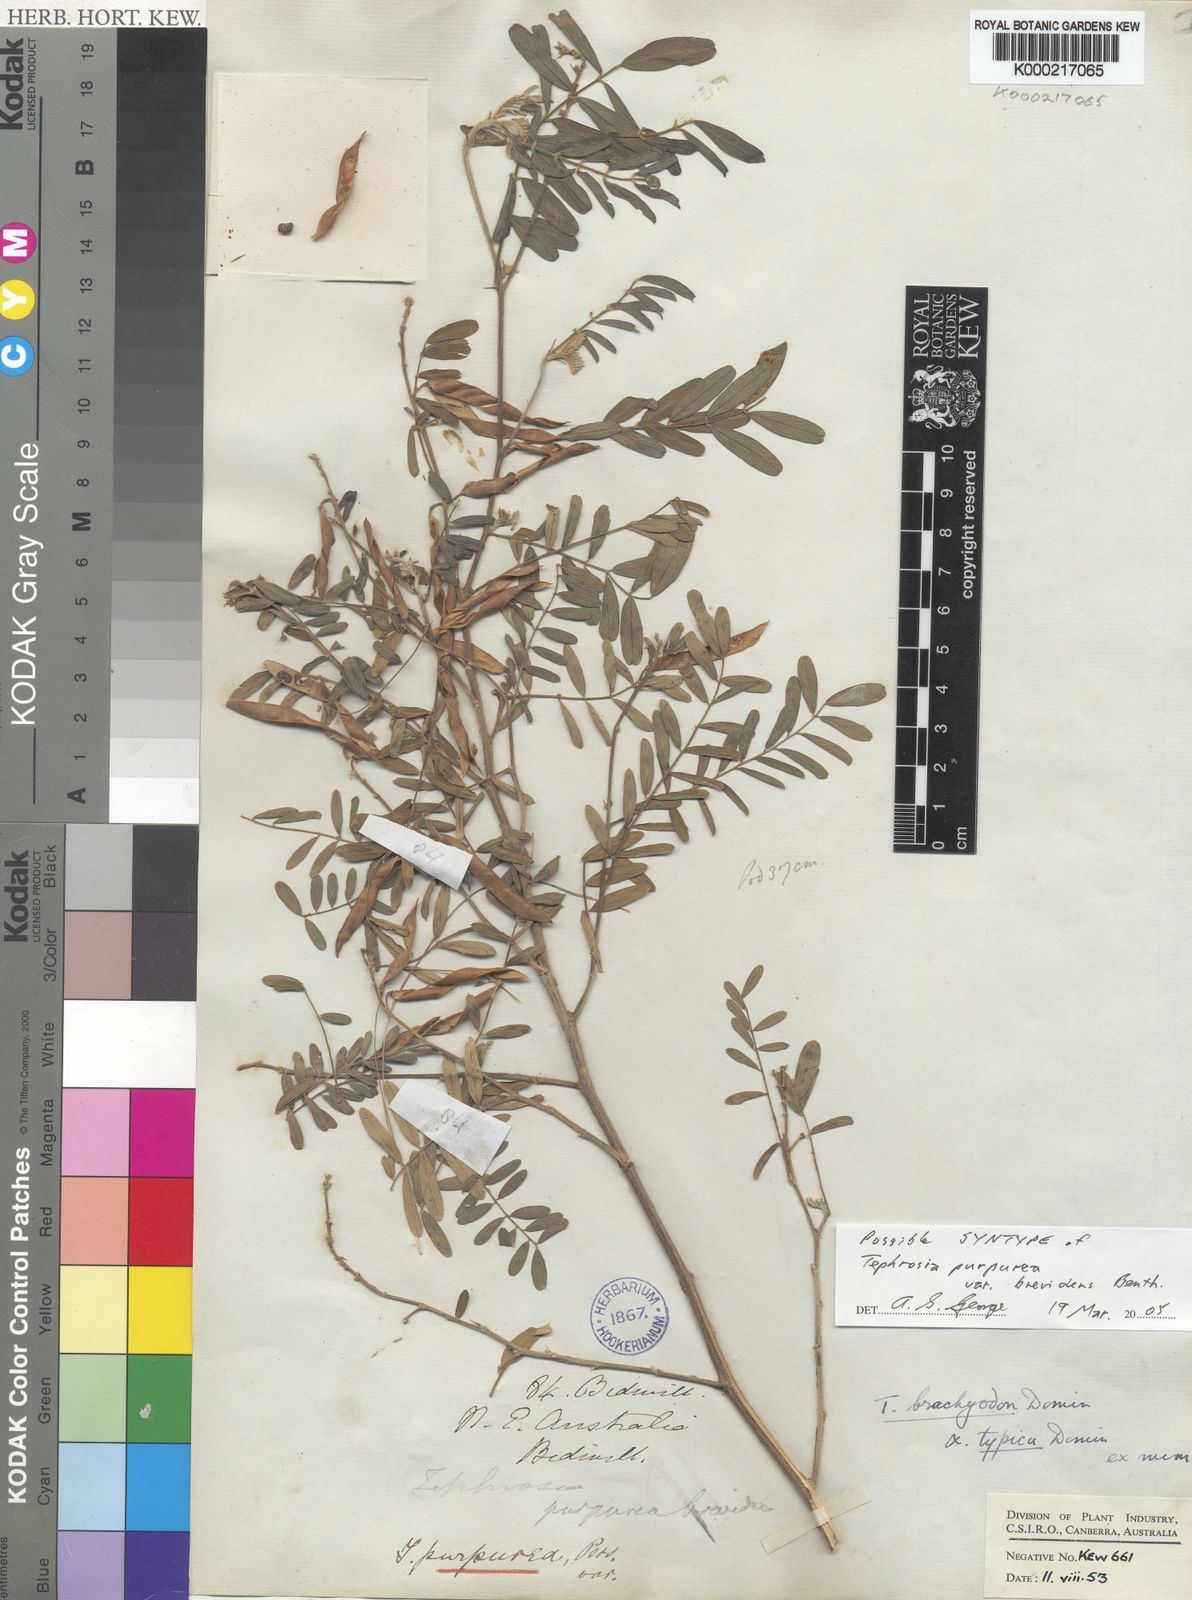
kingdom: Plantae
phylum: Tracheophyta
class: Magnoliopsida
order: Fabales
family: Fabaceae
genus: Tephrosia
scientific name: Tephrosia purpurea
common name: Fishpoison
